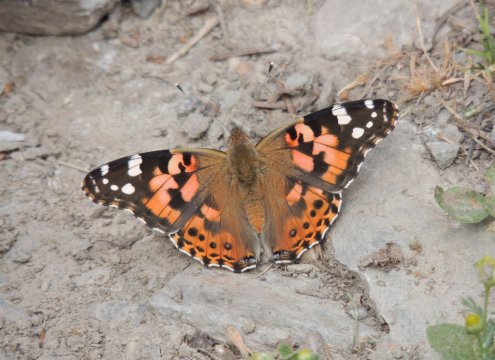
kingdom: Animalia
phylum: Arthropoda
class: Insecta
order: Lepidoptera
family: Nymphalidae
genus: Vanessa
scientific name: Vanessa cardui
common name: Painted Lady
